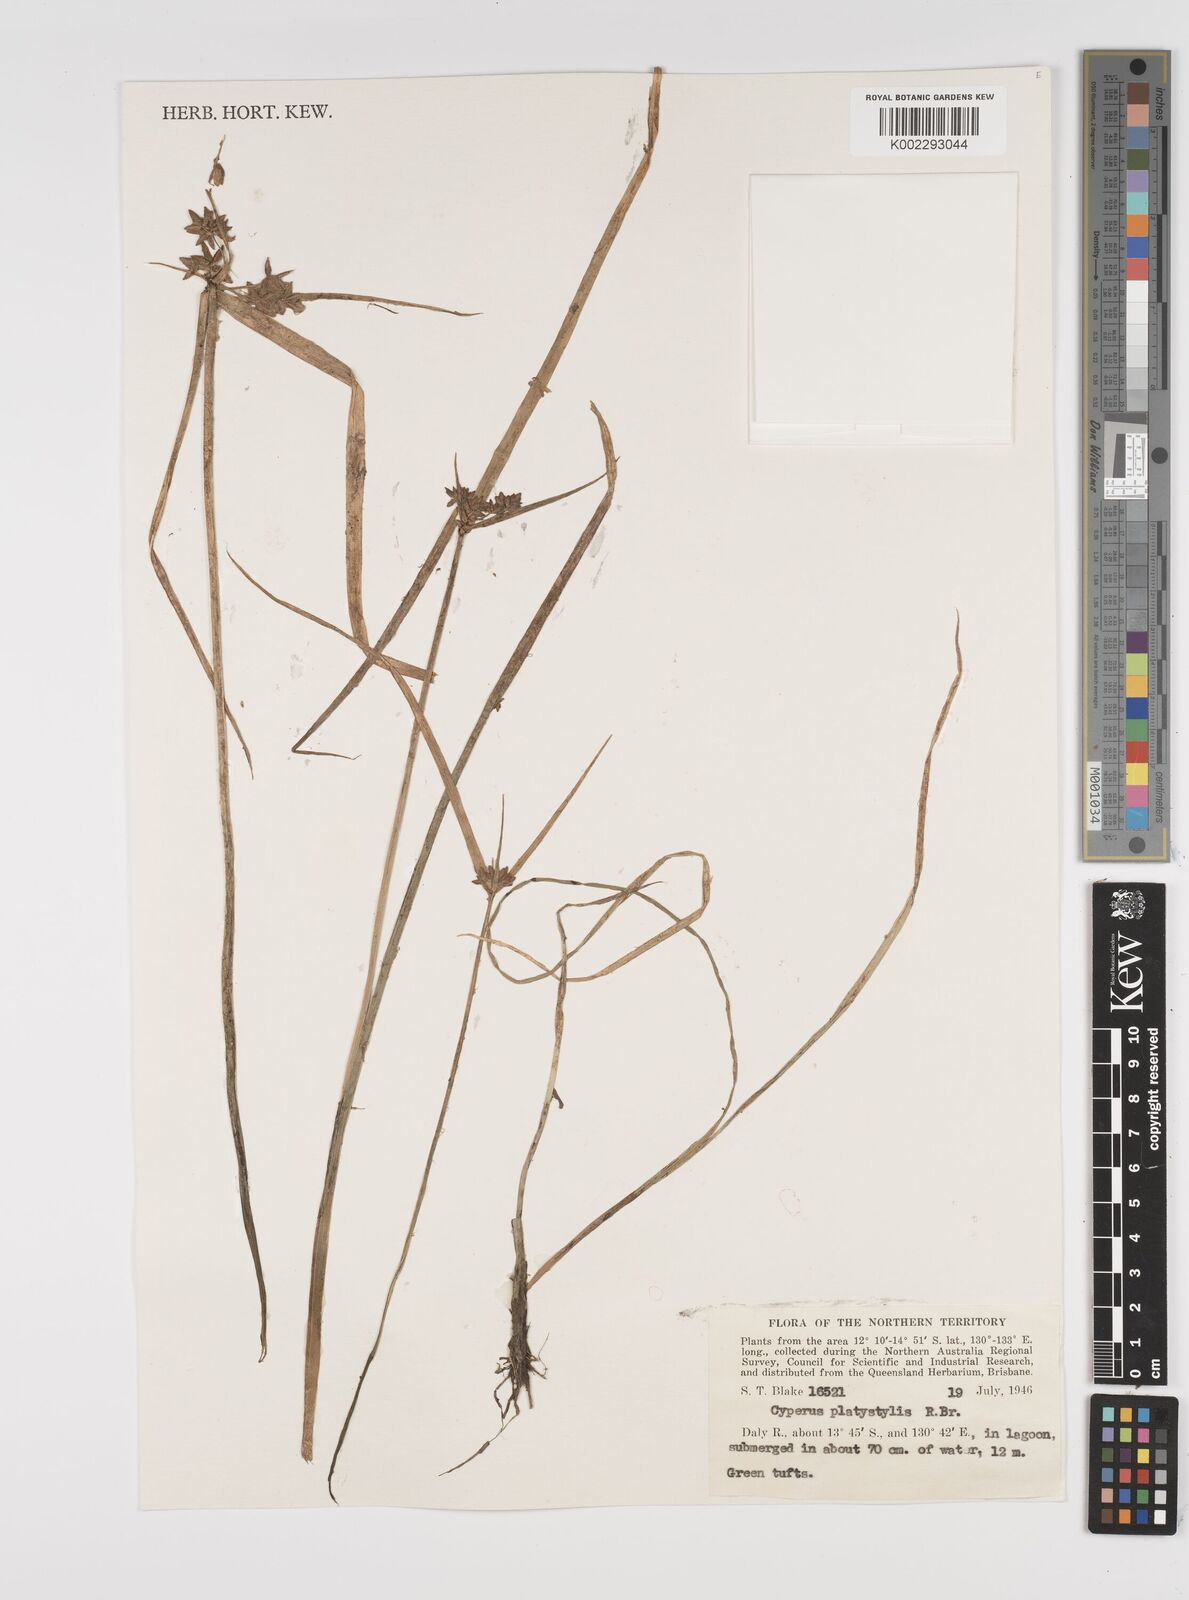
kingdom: Plantae
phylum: Tracheophyta
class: Liliopsida
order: Poales
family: Cyperaceae
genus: Cyperus
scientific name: Cyperus platystylis
